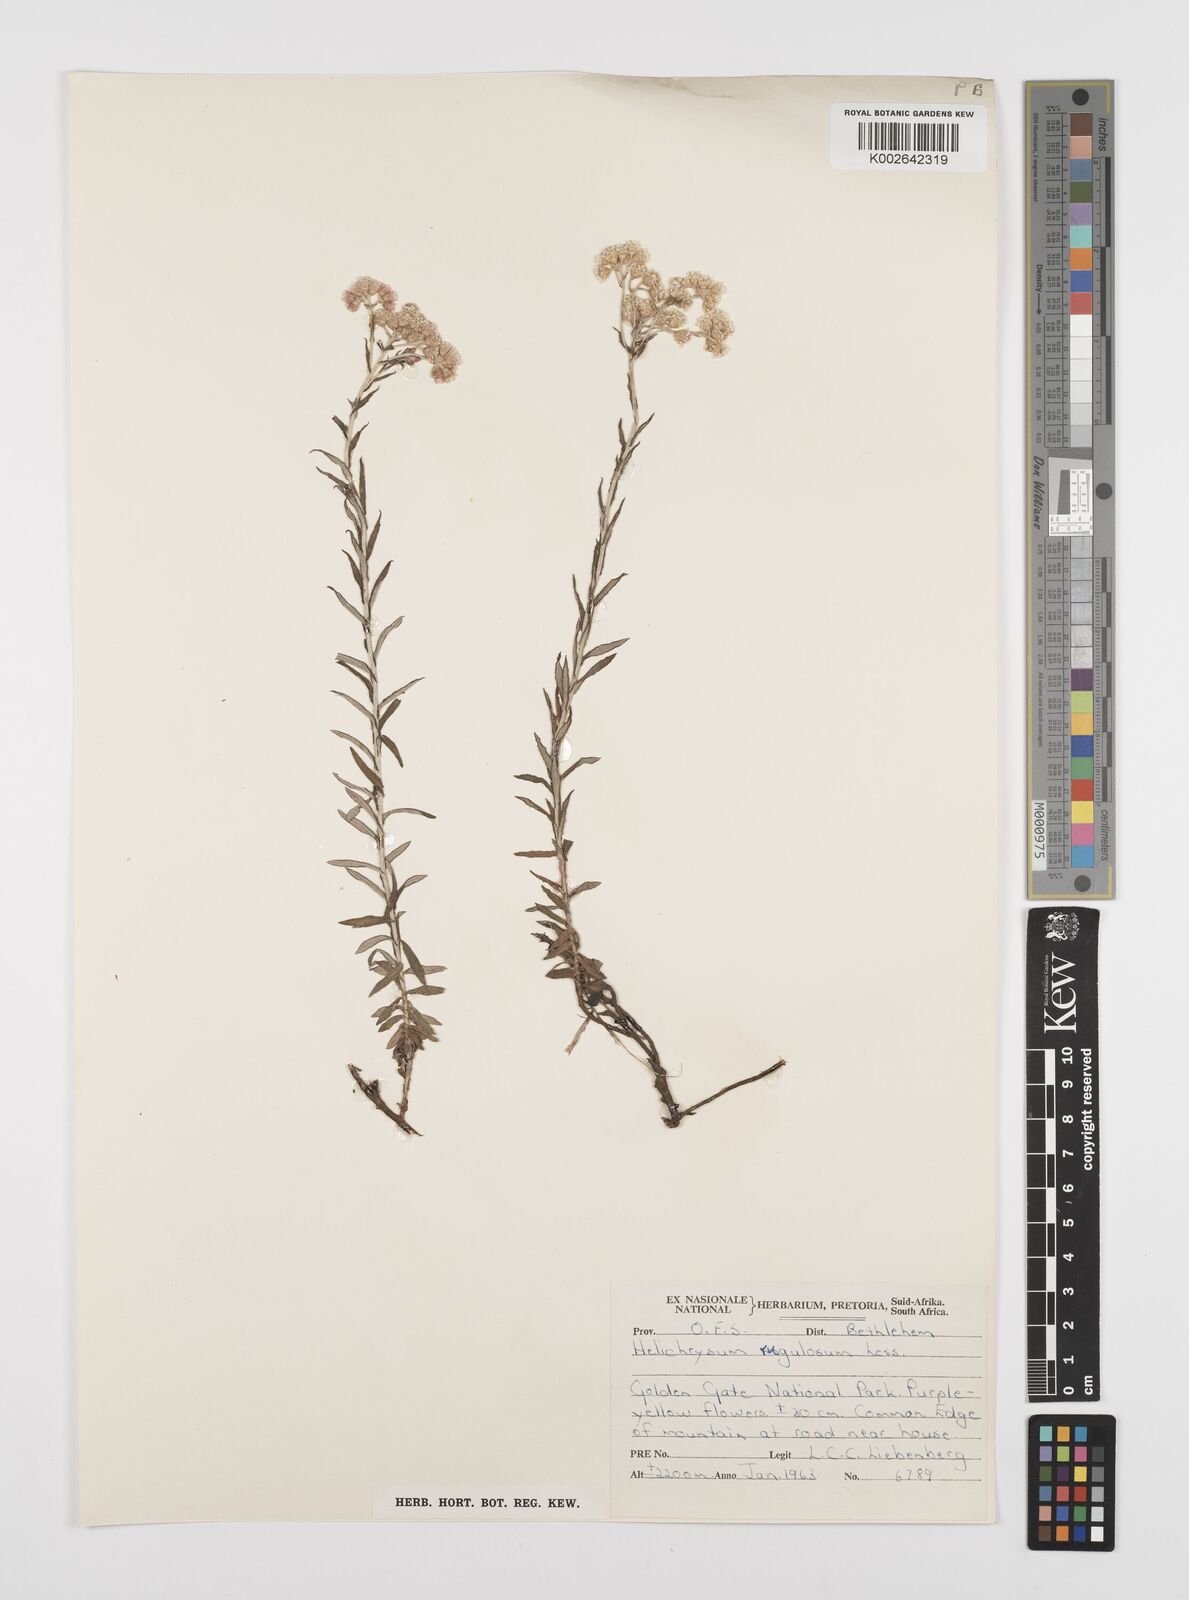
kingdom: Plantae
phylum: Tracheophyta
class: Magnoliopsida
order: Asterales
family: Asteraceae
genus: Helichrysum
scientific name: Helichrysum rugulosum
